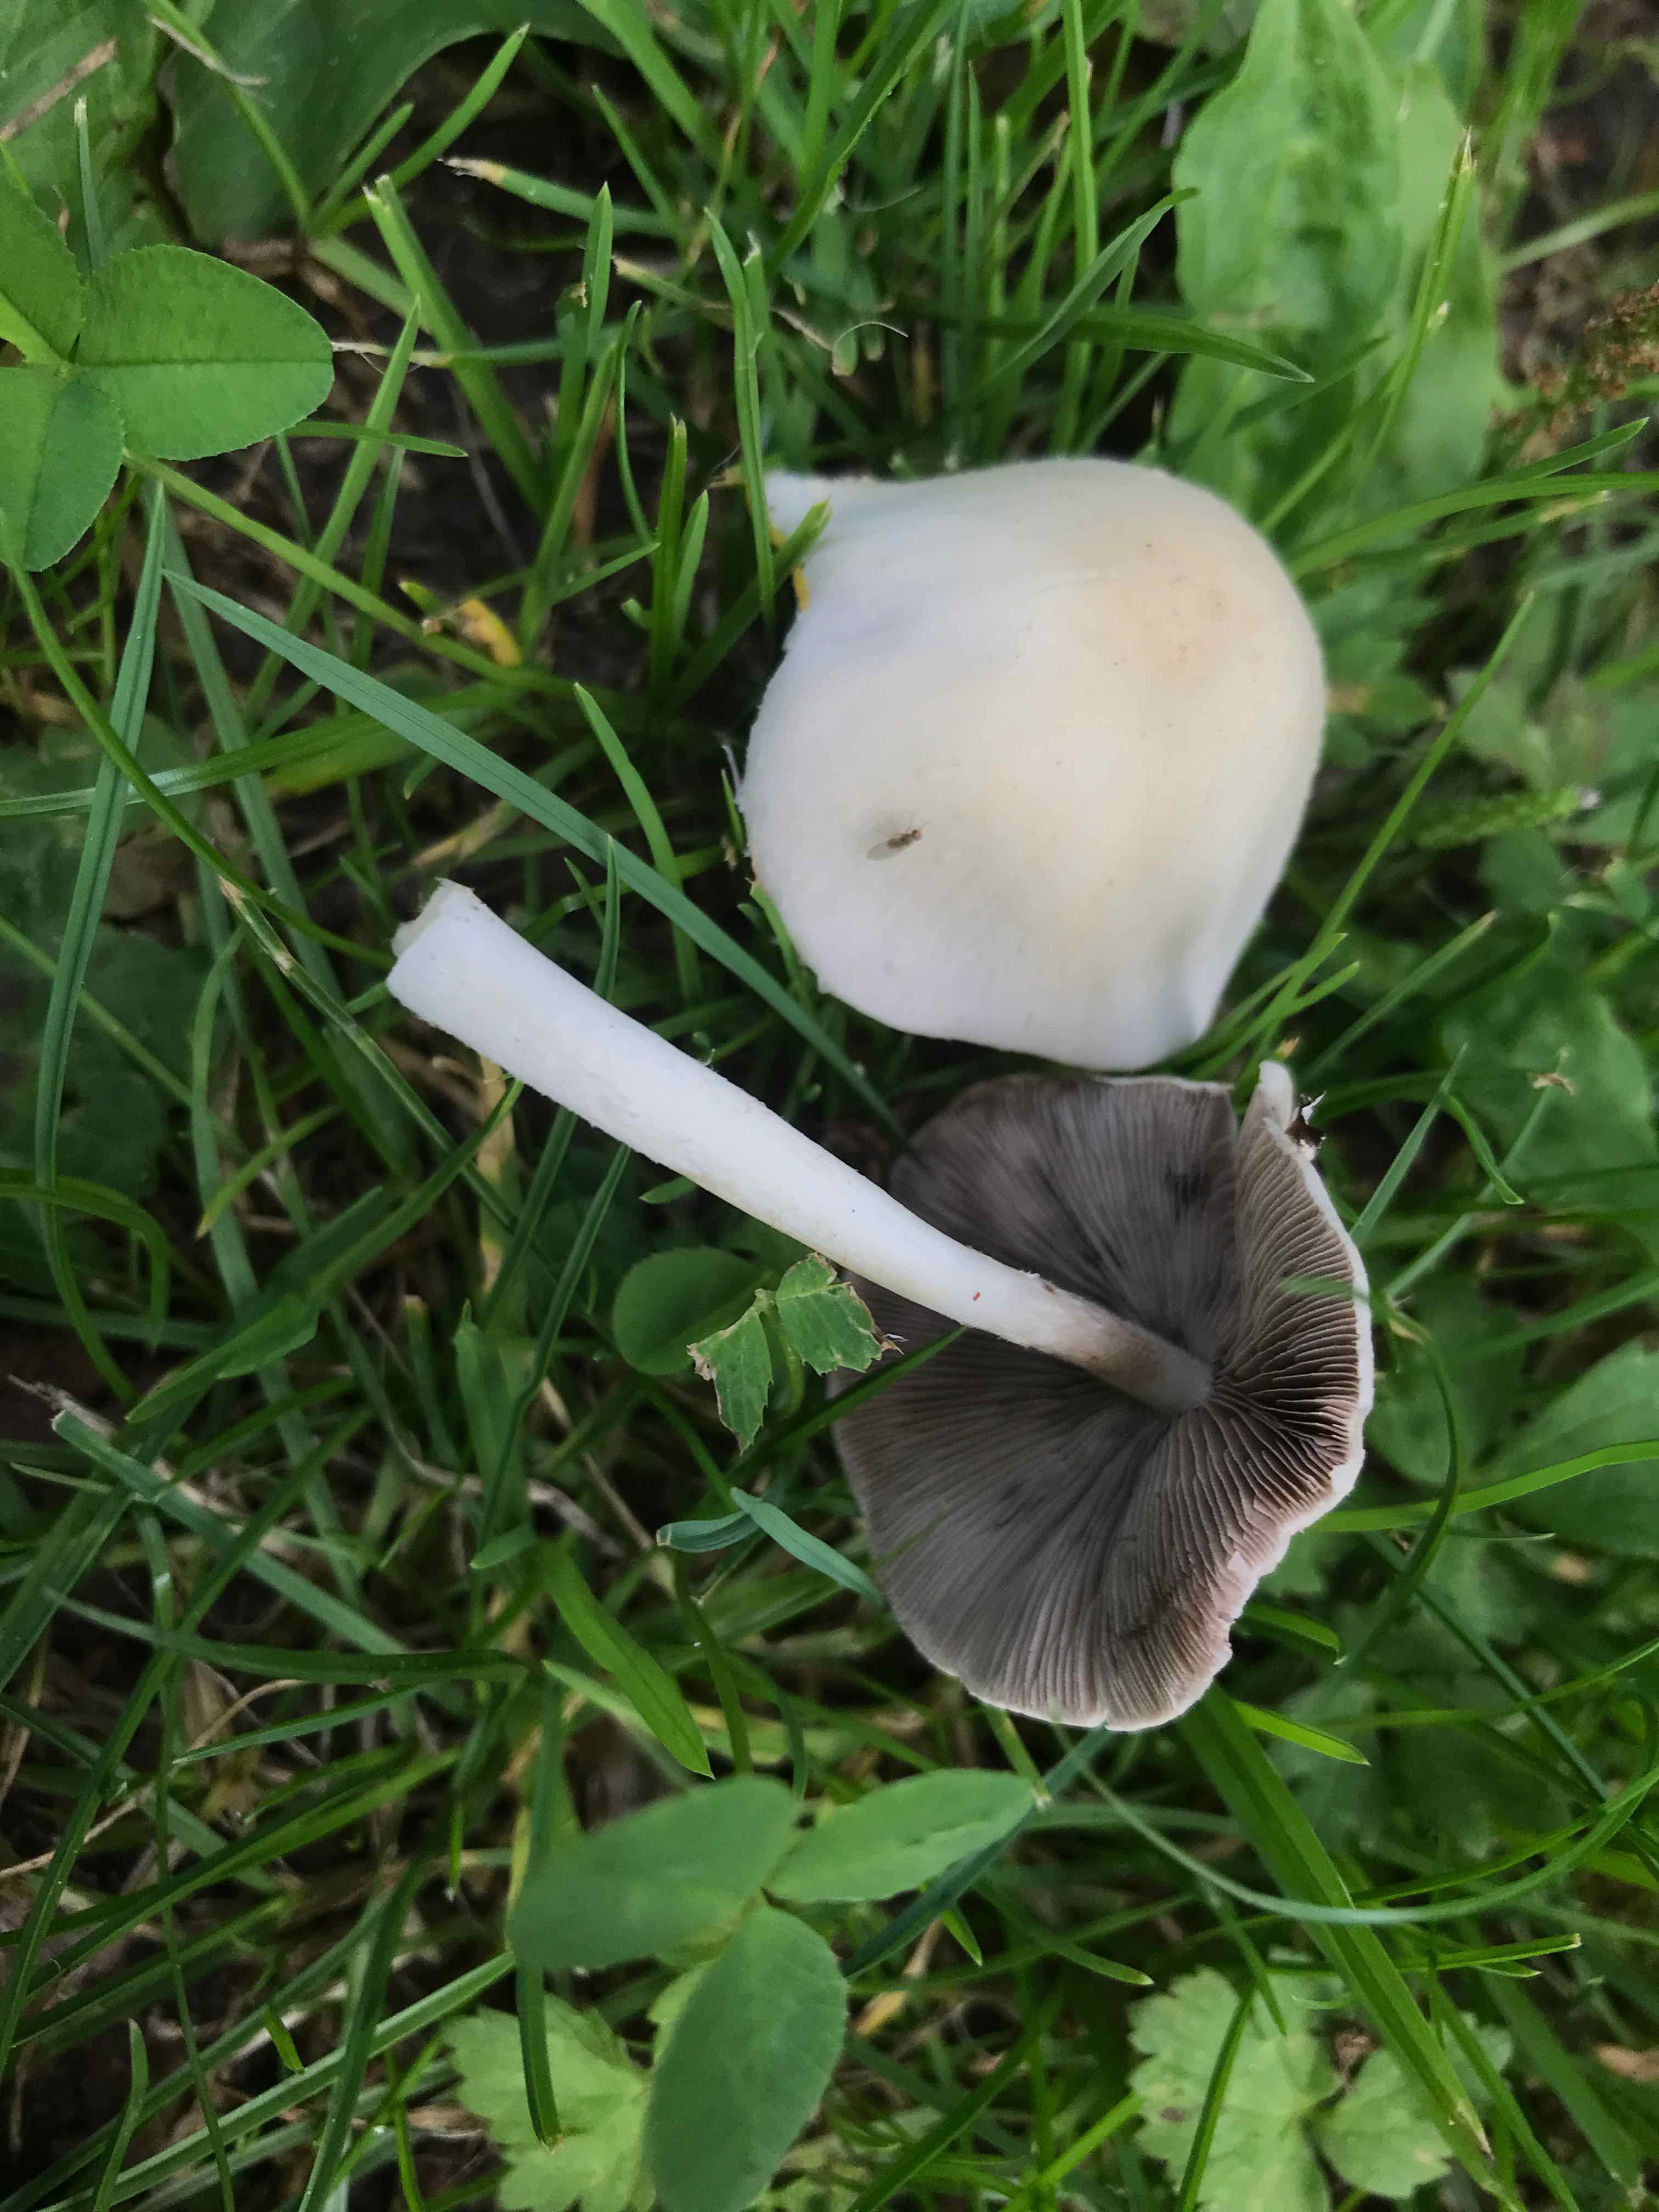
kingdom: Fungi
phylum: Basidiomycota
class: Agaricomycetes
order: Agaricales
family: Psathyrellaceae
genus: Candolleomyces
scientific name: Candolleomyces candolleanus
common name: Candolles mørkhat
